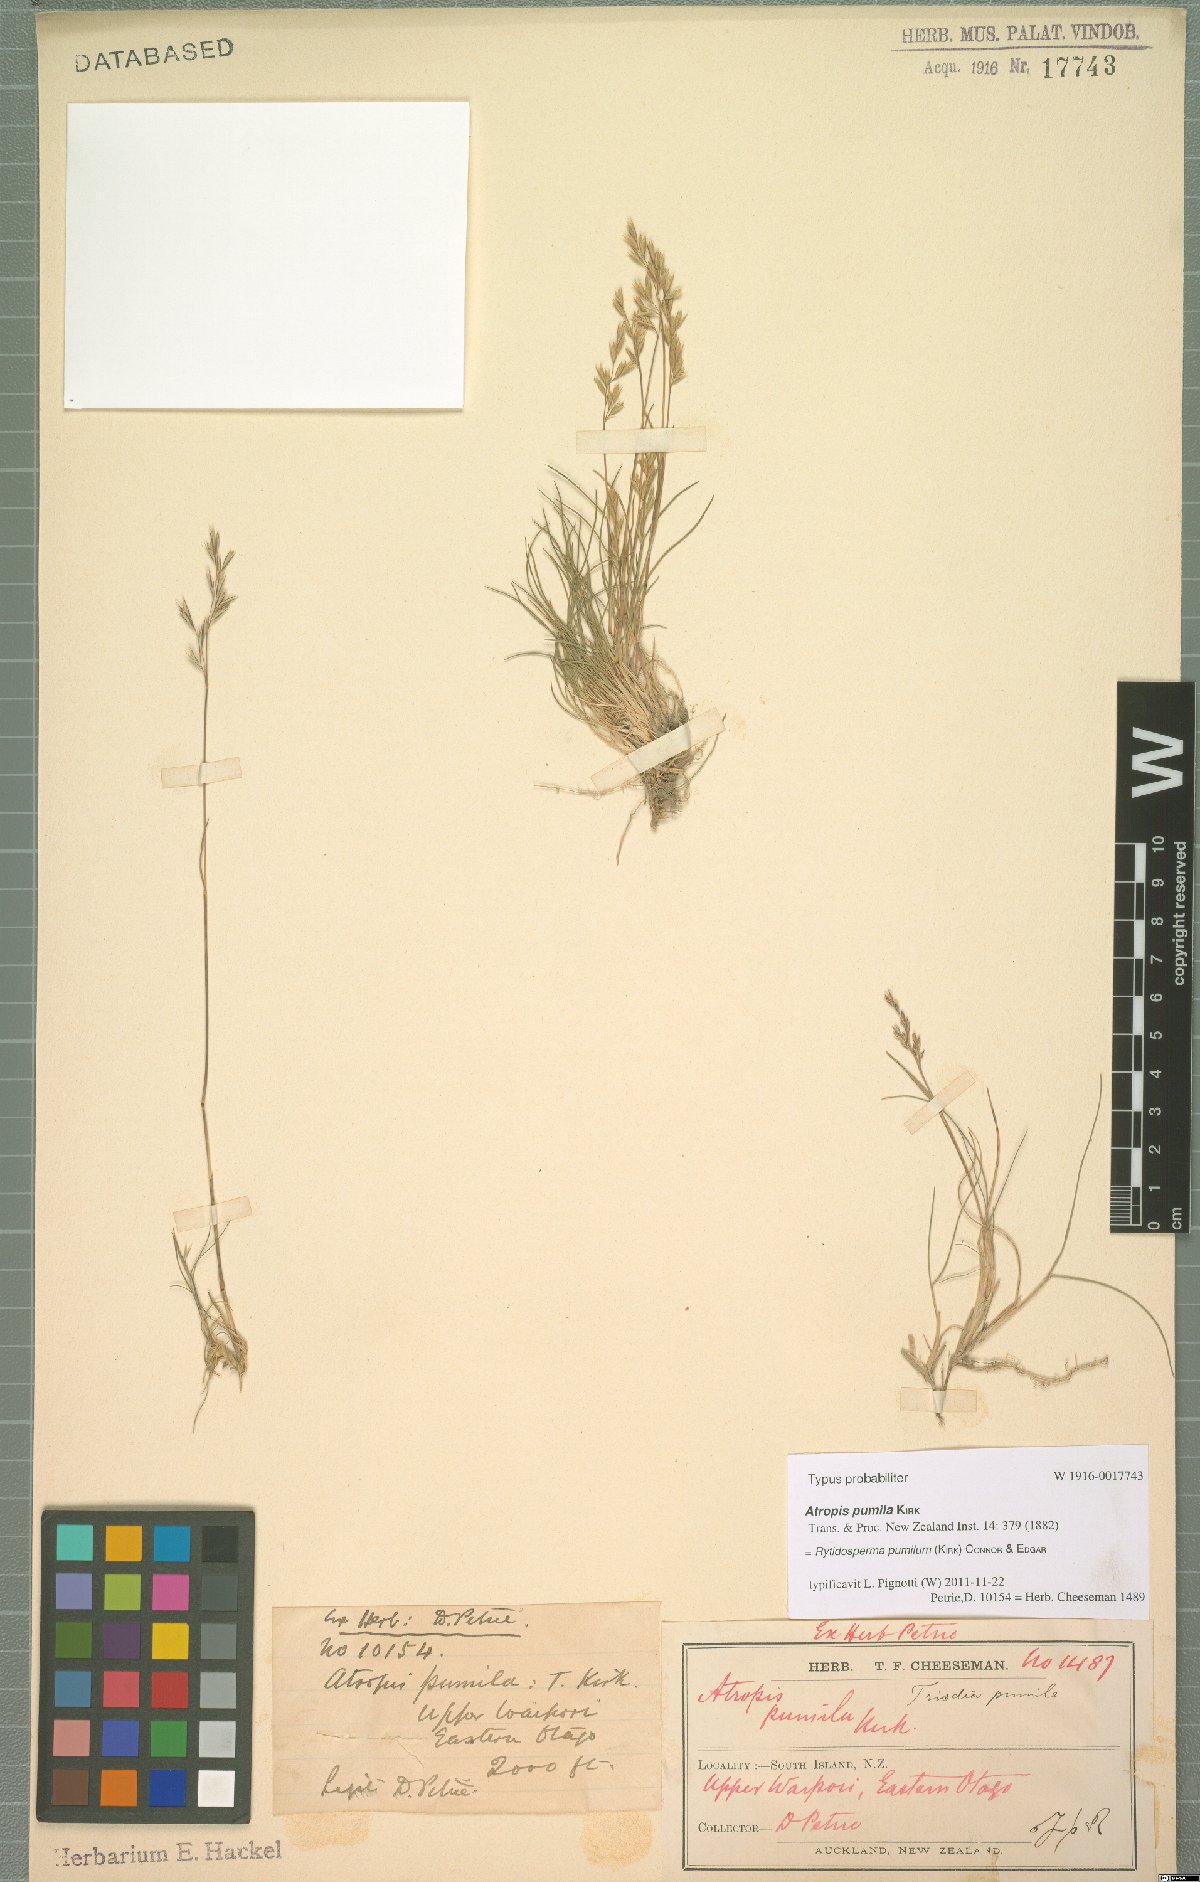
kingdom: Plantae
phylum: Tracheophyta
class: Liliopsida
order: Poales
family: Poaceae
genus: Rytidosperma
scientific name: Rytidosperma pumilum
